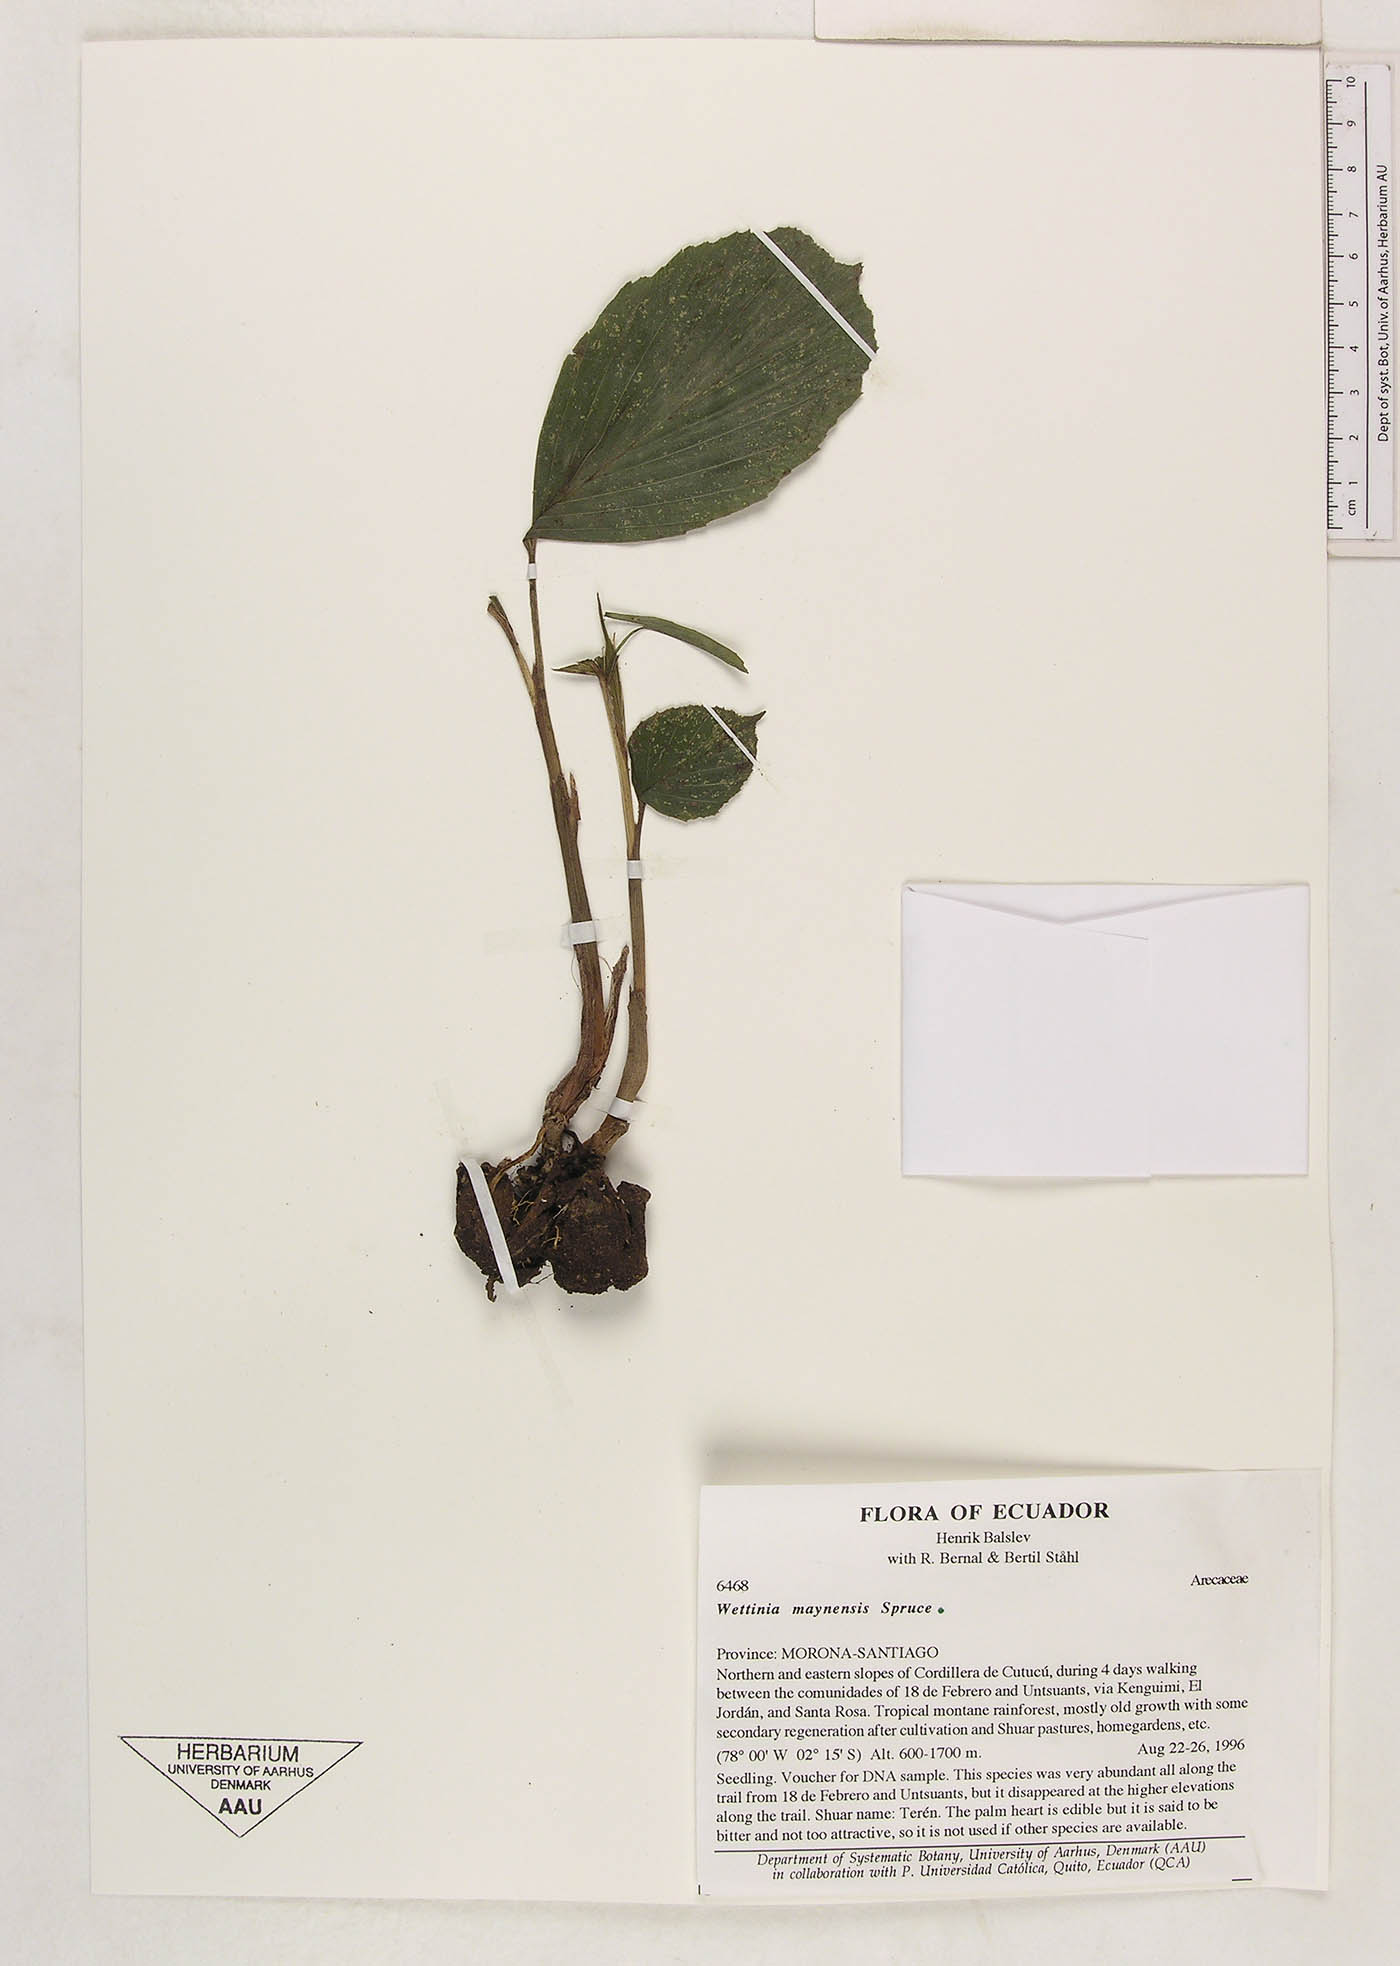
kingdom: Plantae
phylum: Tracheophyta
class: Liliopsida
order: Arecales
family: Arecaceae
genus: Wettinia
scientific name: Wettinia maynensis
